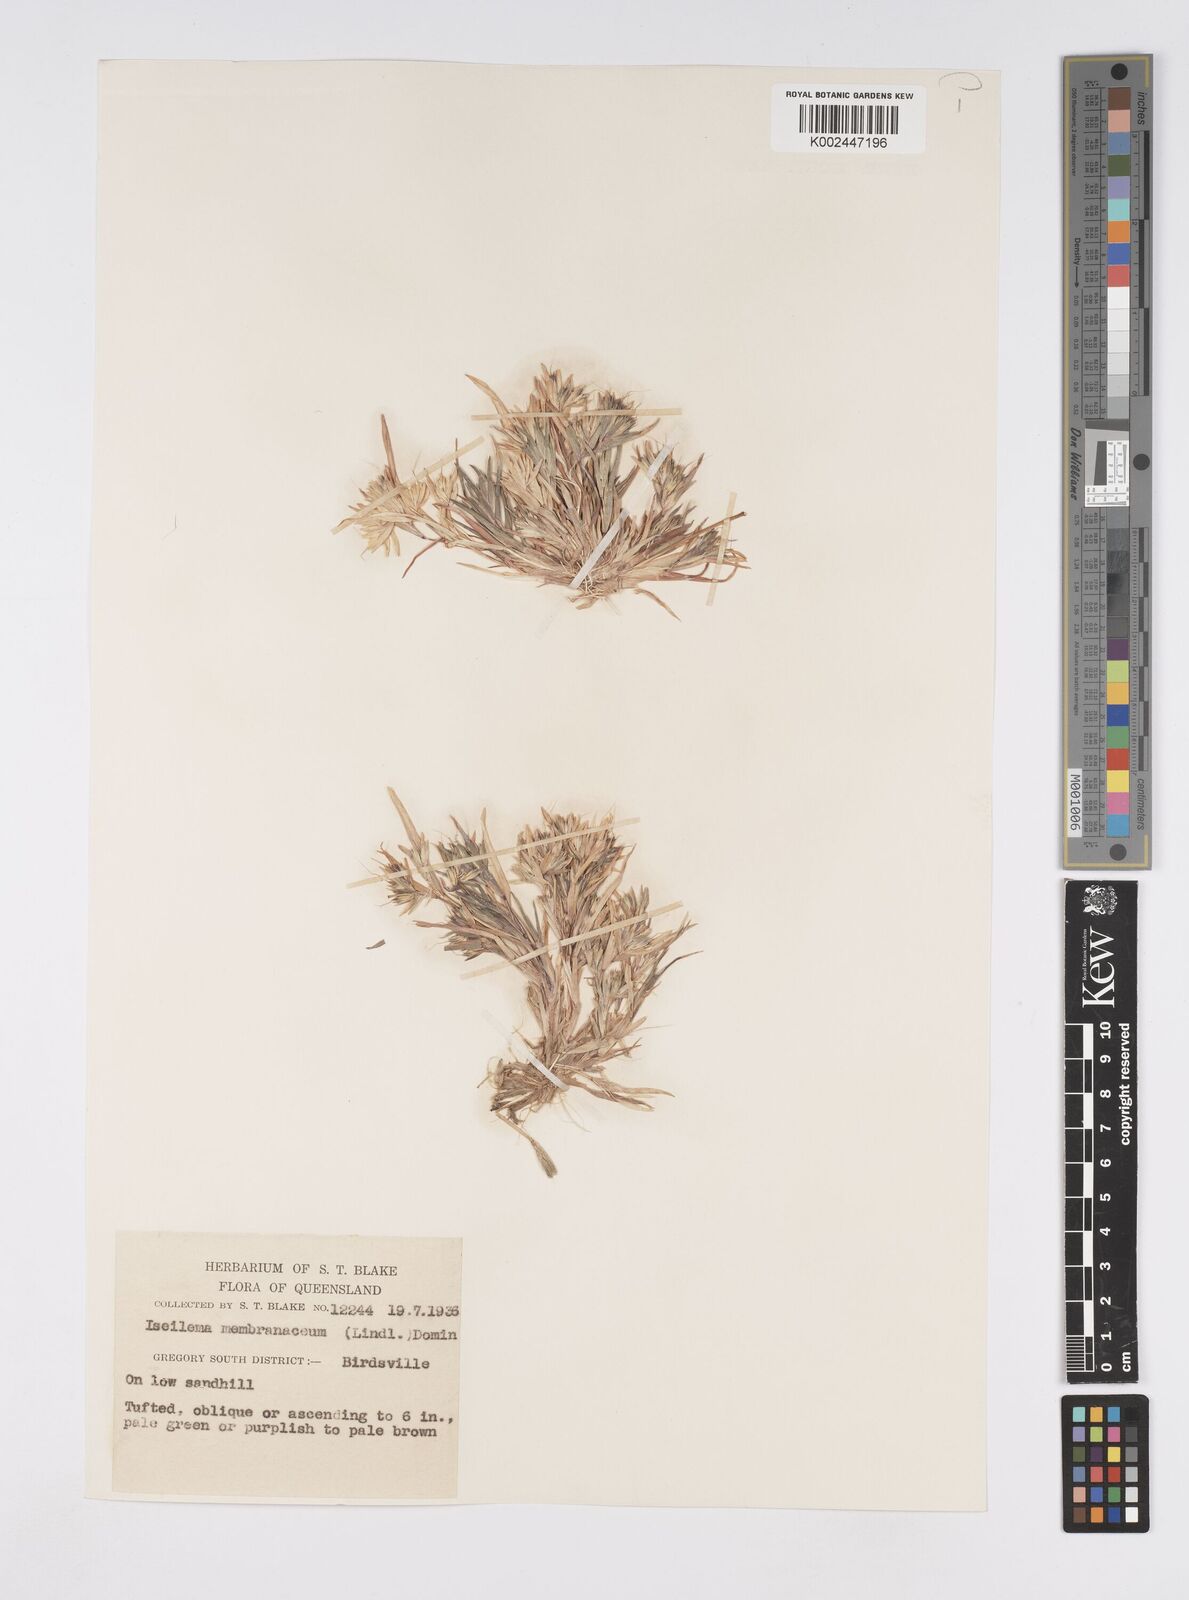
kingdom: Plantae
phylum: Tracheophyta
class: Liliopsida
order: Poales
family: Poaceae
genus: Iseilema
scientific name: Iseilema membranaceum
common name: Small flinders grass
